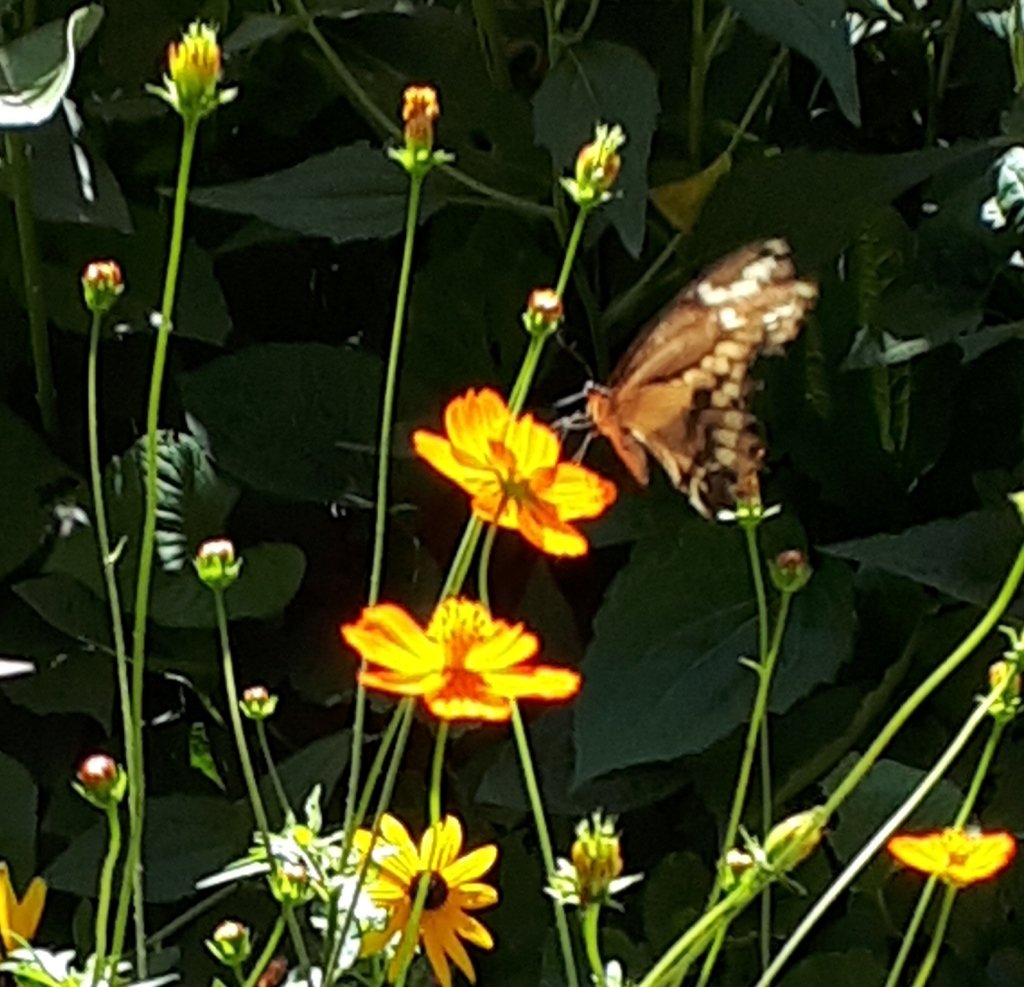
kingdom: Animalia
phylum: Arthropoda
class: Insecta
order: Lepidoptera
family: Papilionidae
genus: Papilio
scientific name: Papilio cresphontes
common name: Eastern Giant Swallowtail
